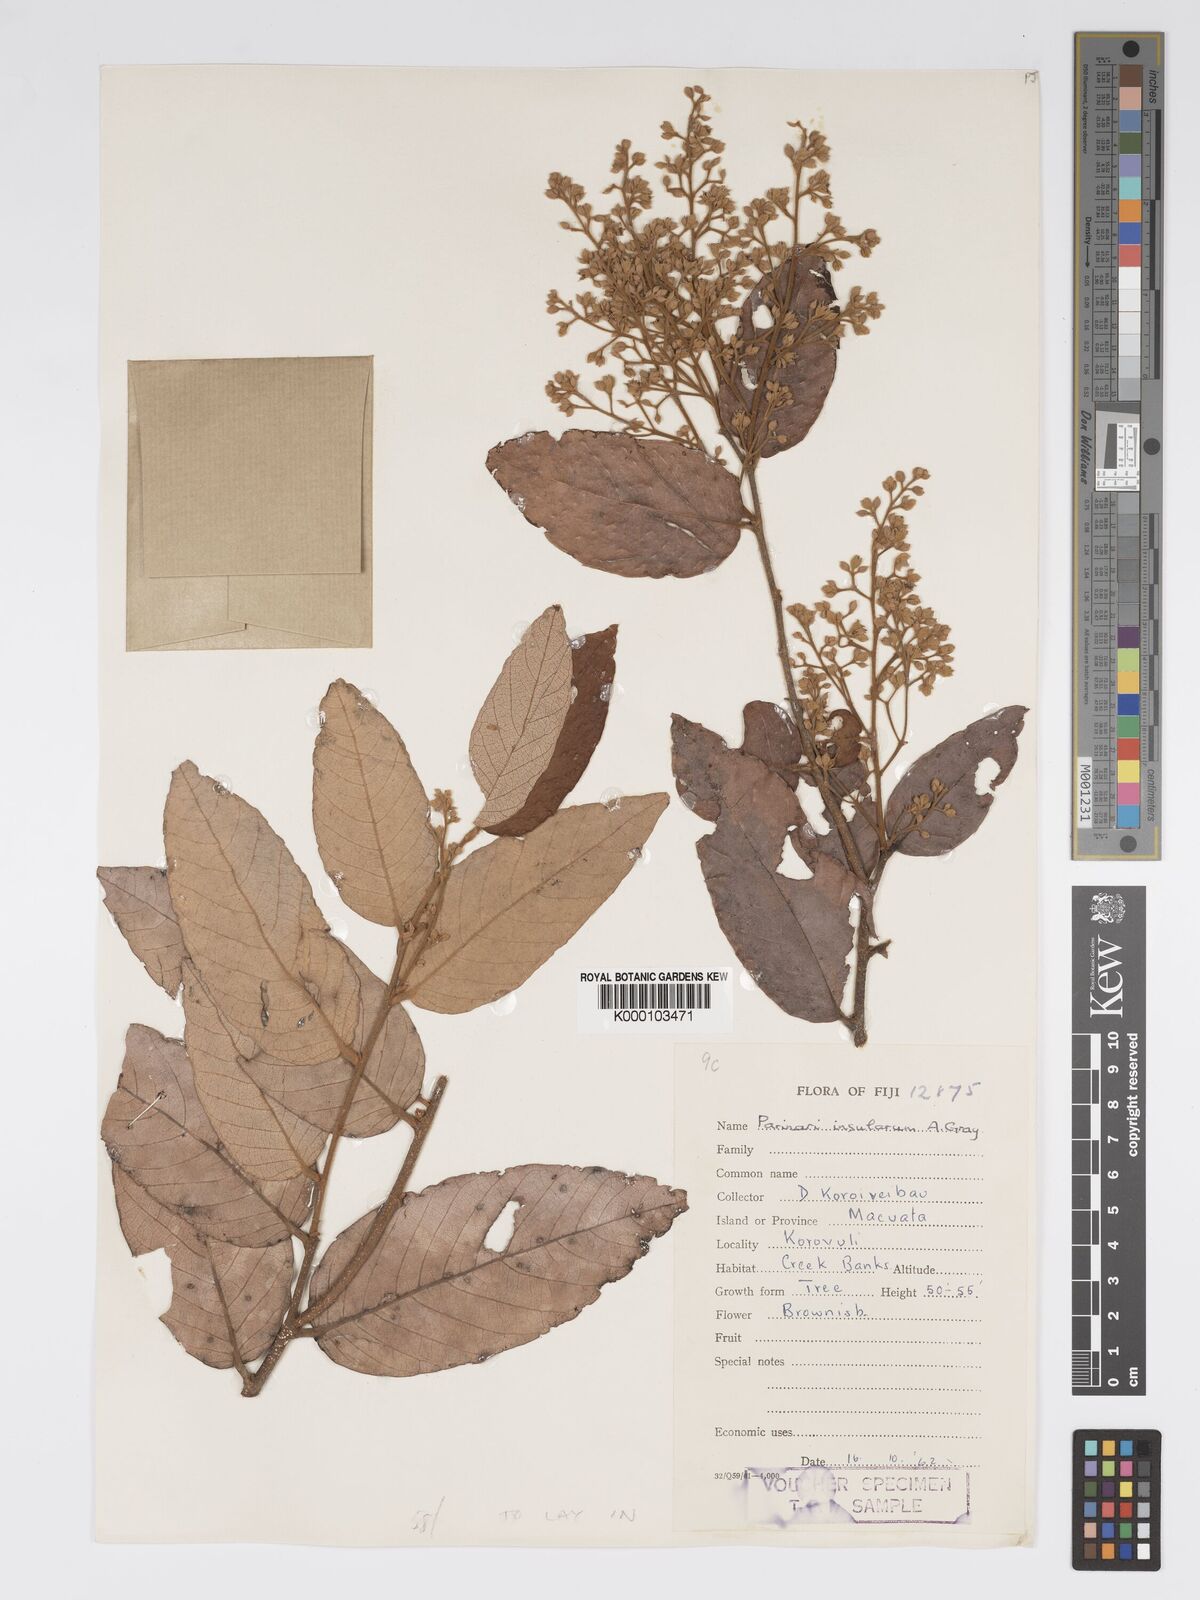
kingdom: Plantae
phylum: Tracheophyta
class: Magnoliopsida
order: Malpighiales
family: Chrysobalanaceae
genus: Parinari
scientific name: Parinari insularum
